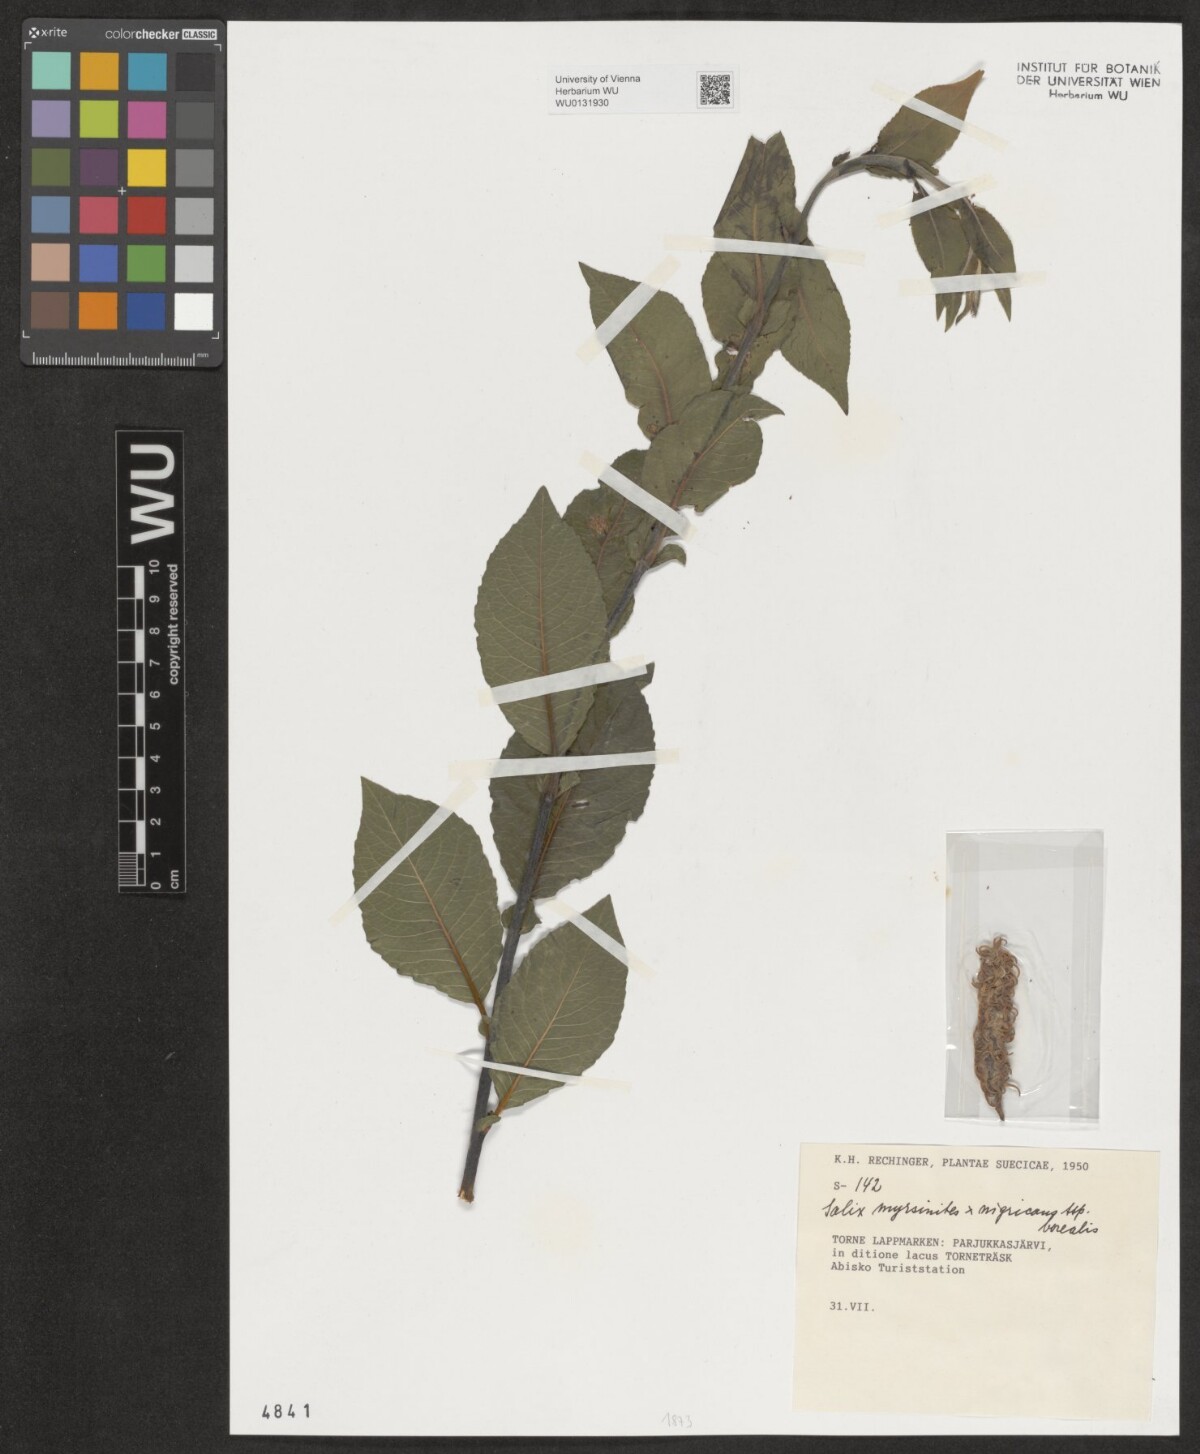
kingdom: Plantae
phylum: Tracheophyta
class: Magnoliopsida
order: Malpighiales
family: Salicaceae
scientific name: Salicaceae
